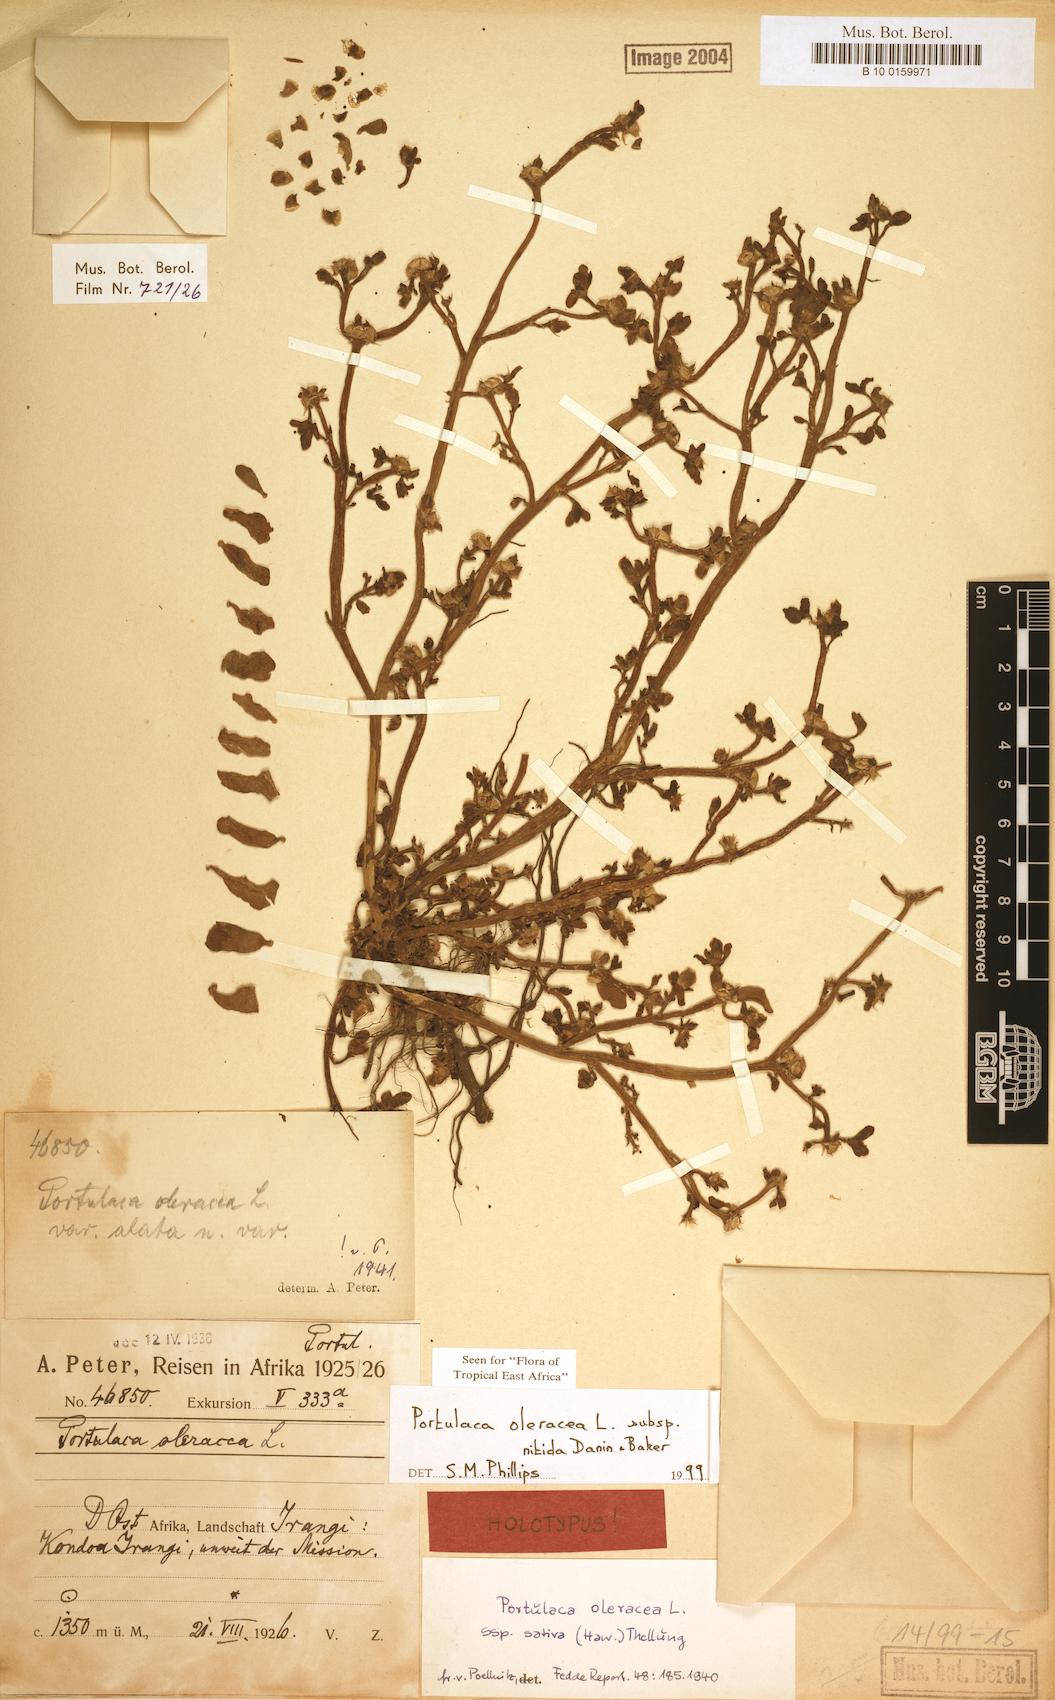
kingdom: Plantae
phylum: Tracheophyta
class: Magnoliopsida
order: Caryophyllales
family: Portulacaceae
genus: Portulaca
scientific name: Portulaca nitida
